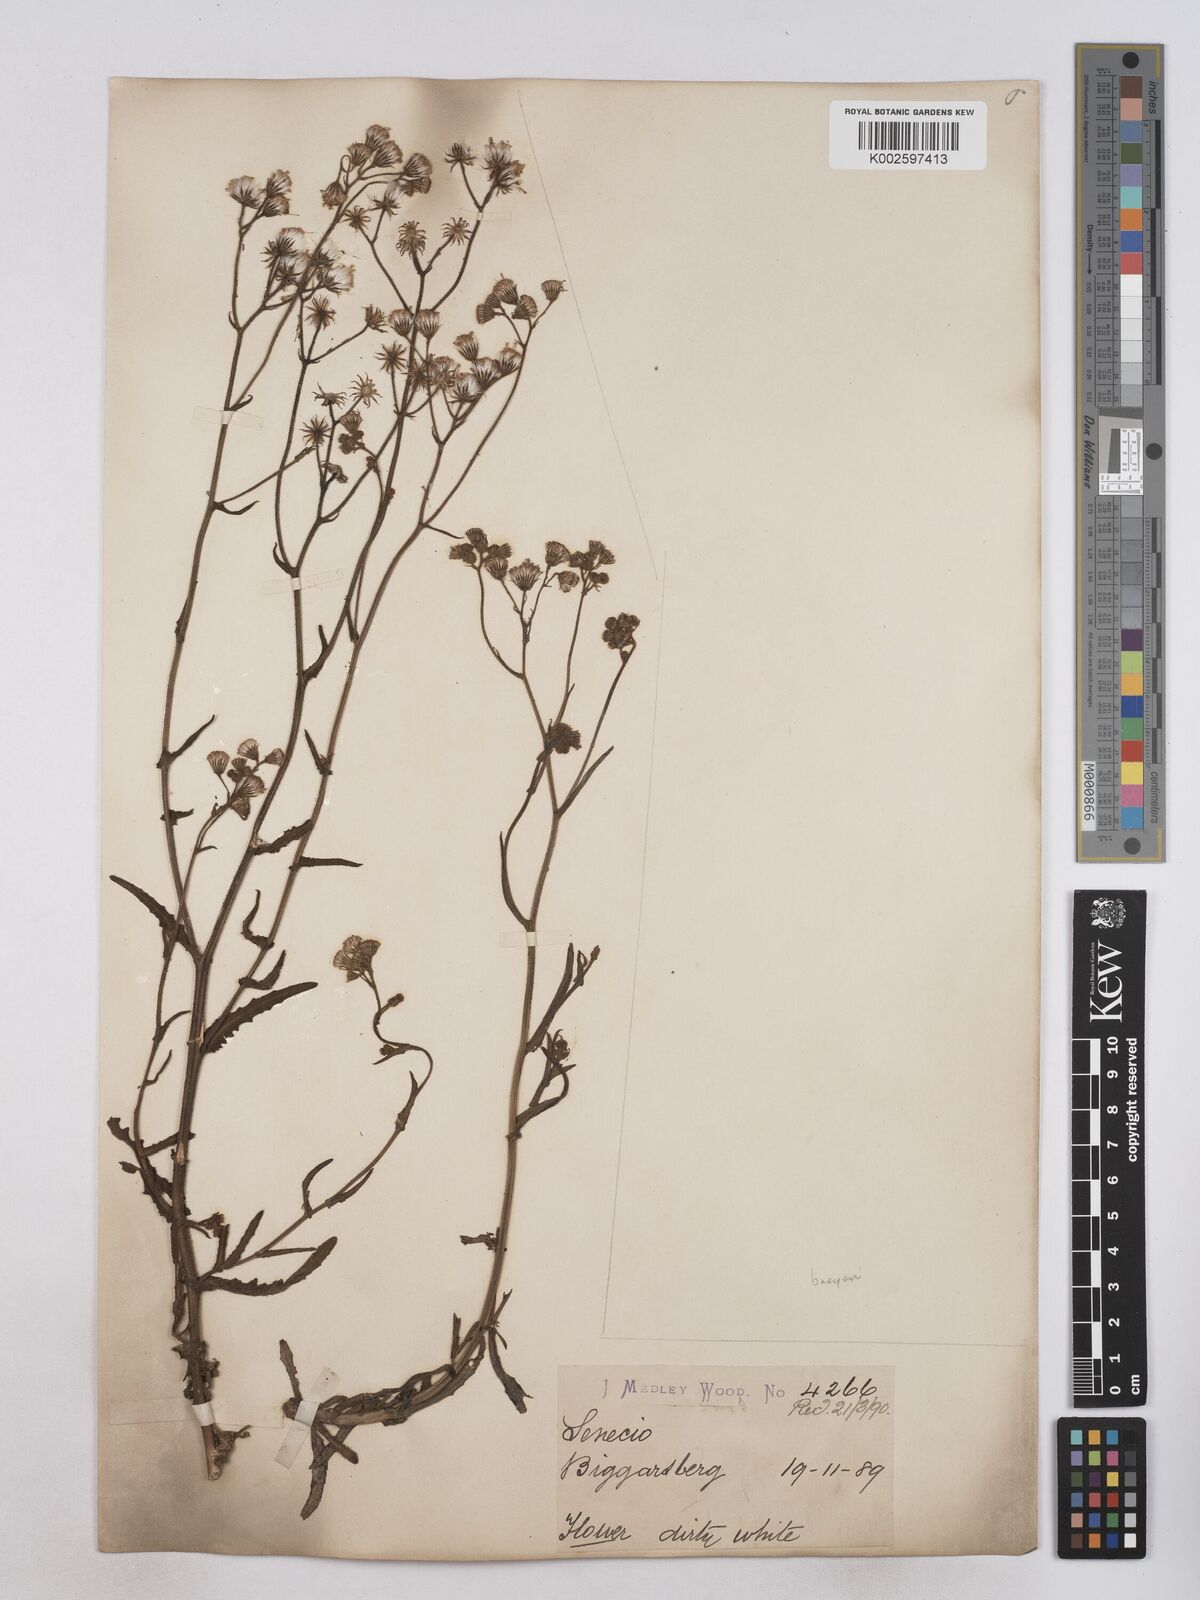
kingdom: Plantae
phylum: Tracheophyta
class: Magnoliopsida
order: Asterales
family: Asteraceae
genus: Senecio
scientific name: Senecio polyodon
